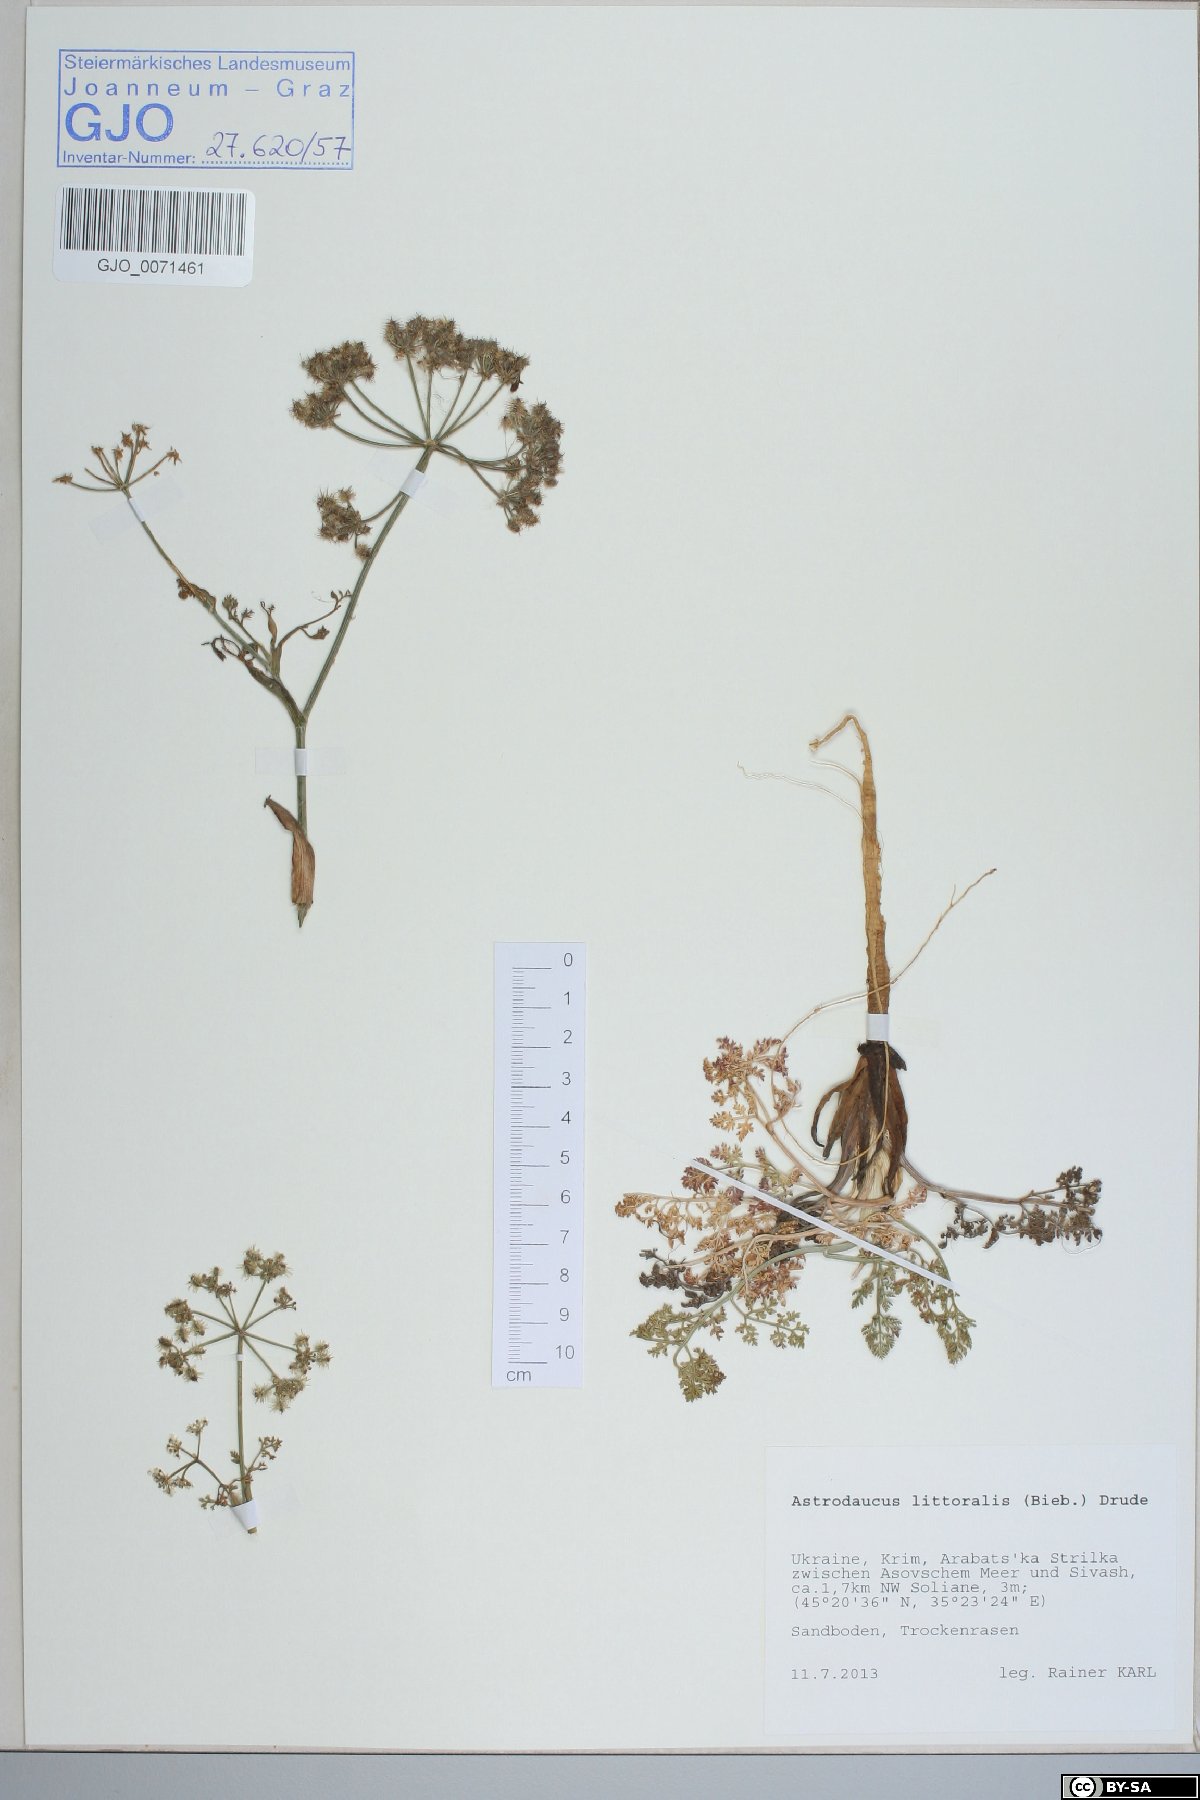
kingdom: Plantae
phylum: Tracheophyta
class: Magnoliopsida
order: Apiales
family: Apiaceae
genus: Astrodaucus
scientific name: Astrodaucus littoralis
